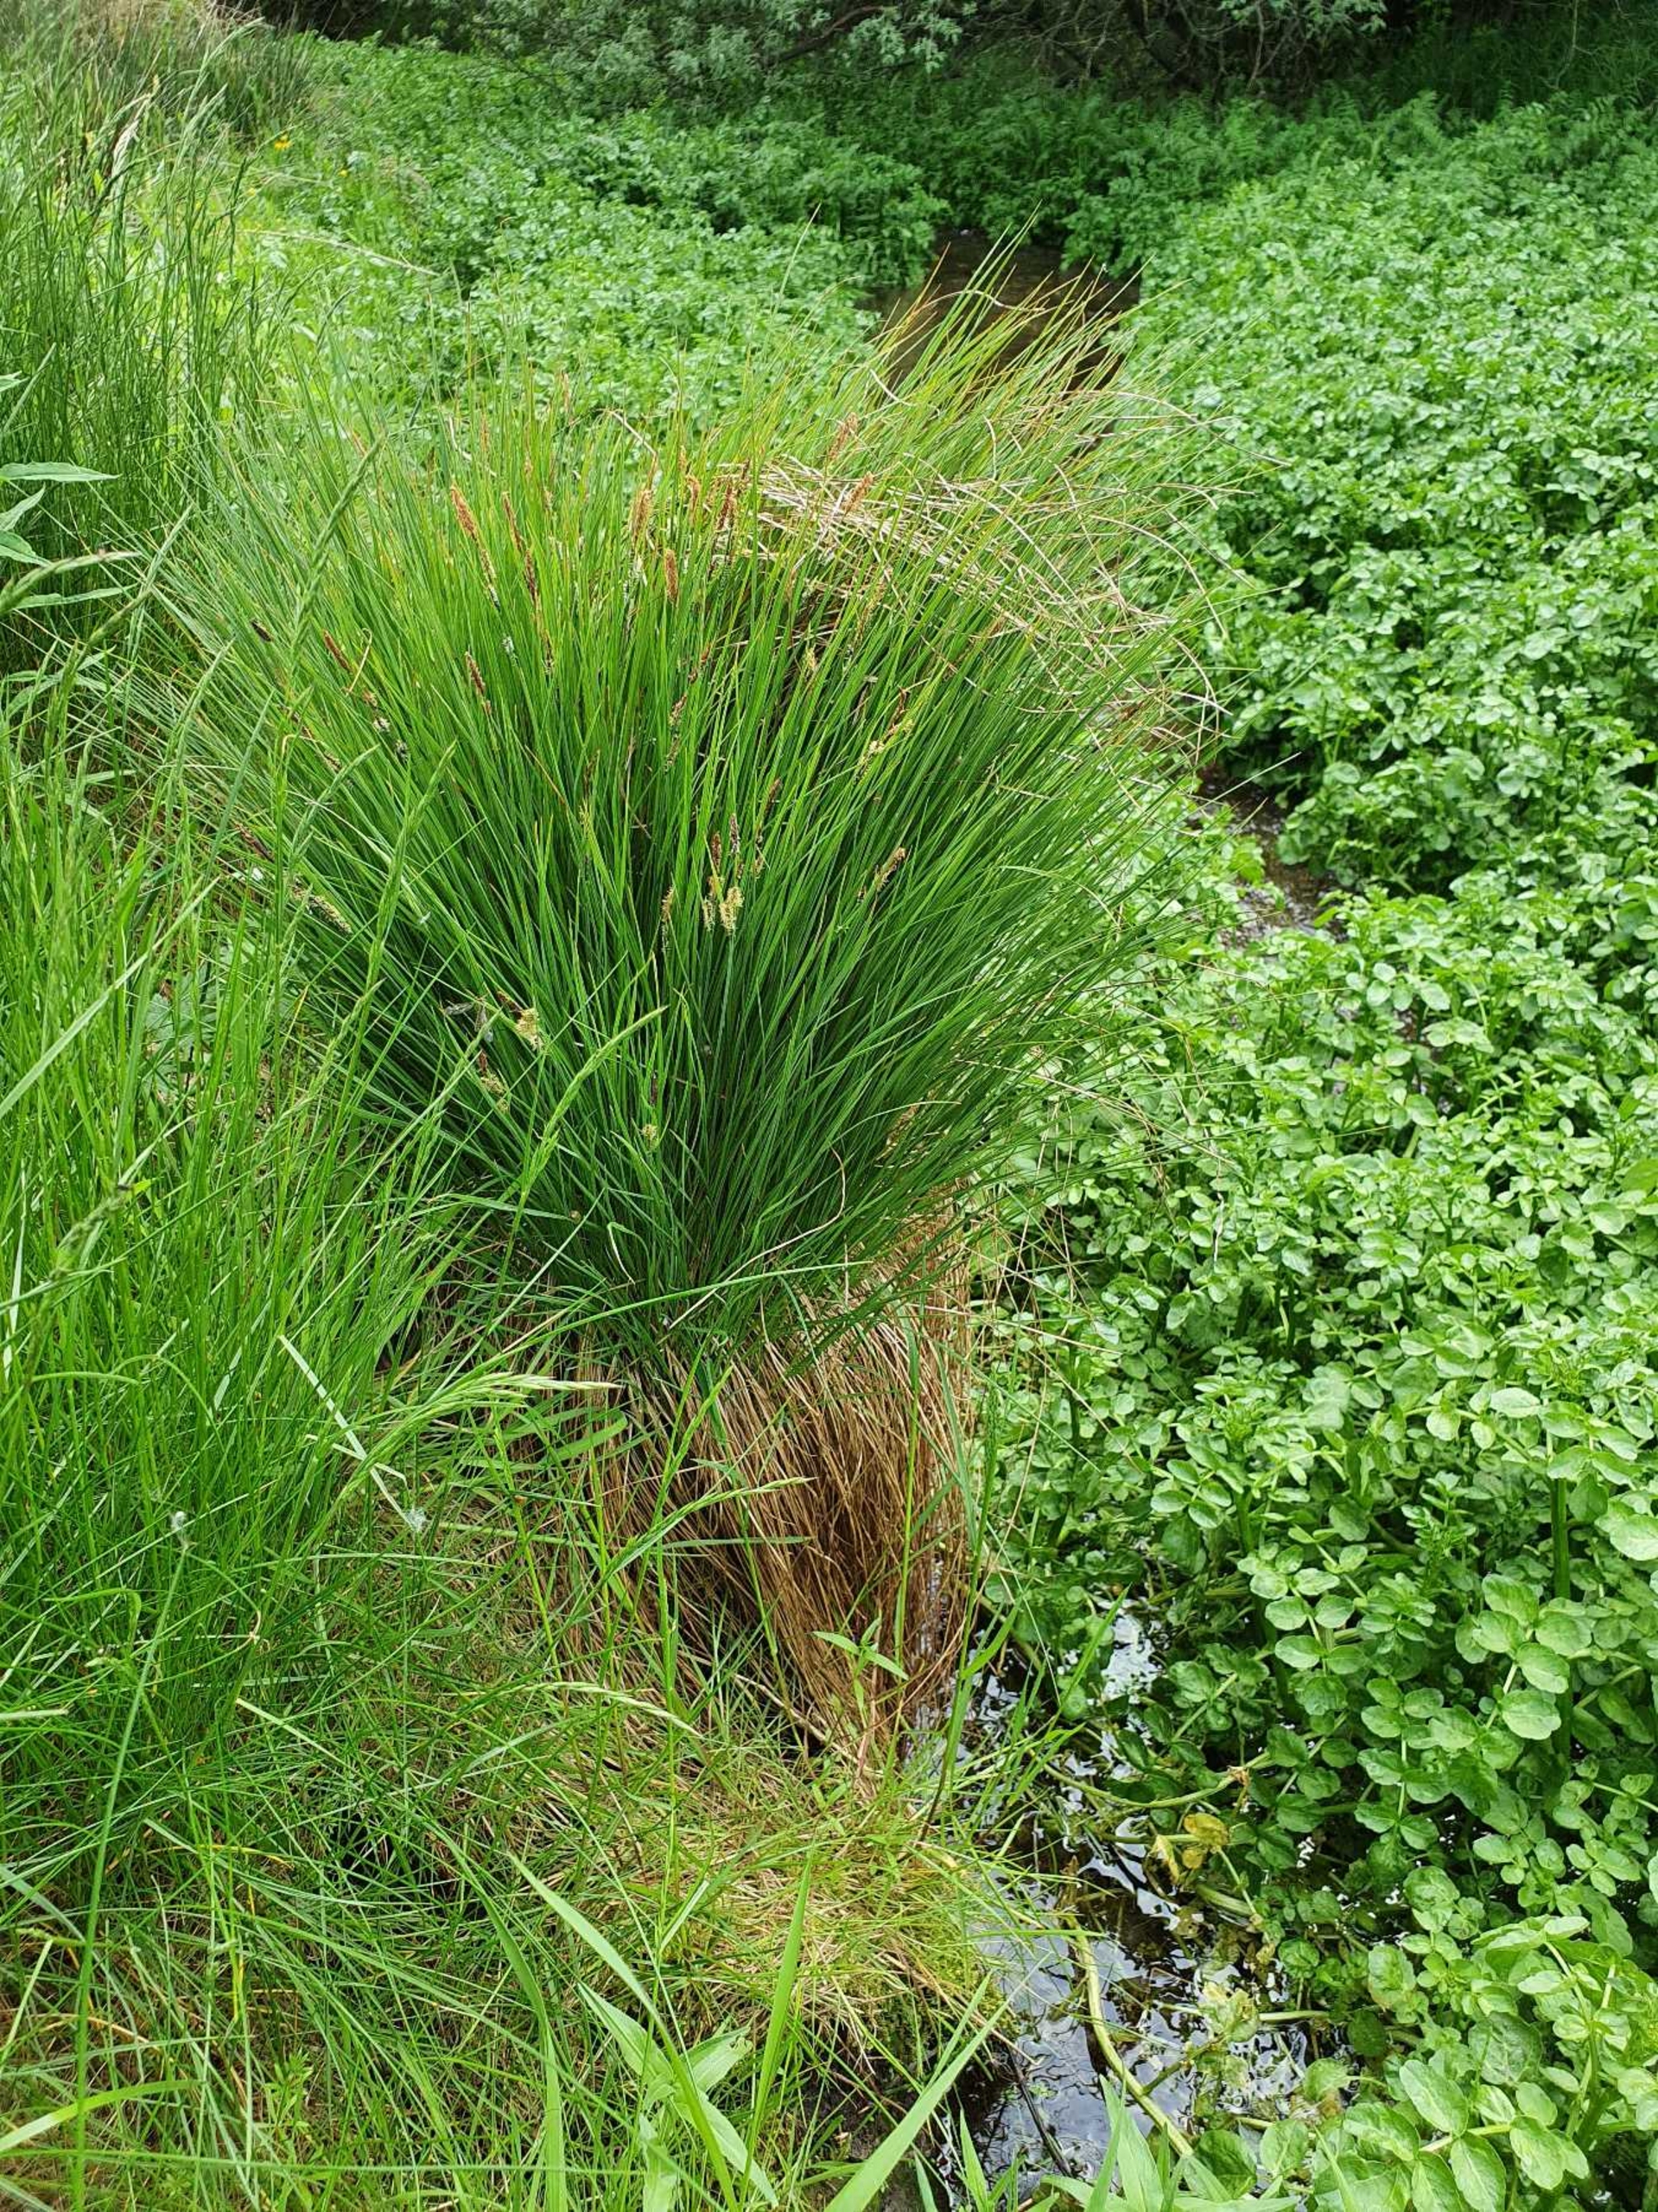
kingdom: Plantae
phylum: Tracheophyta
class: Liliopsida
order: Poales
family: Cyperaceae
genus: Carex
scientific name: Carex nigra
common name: Knold-star
